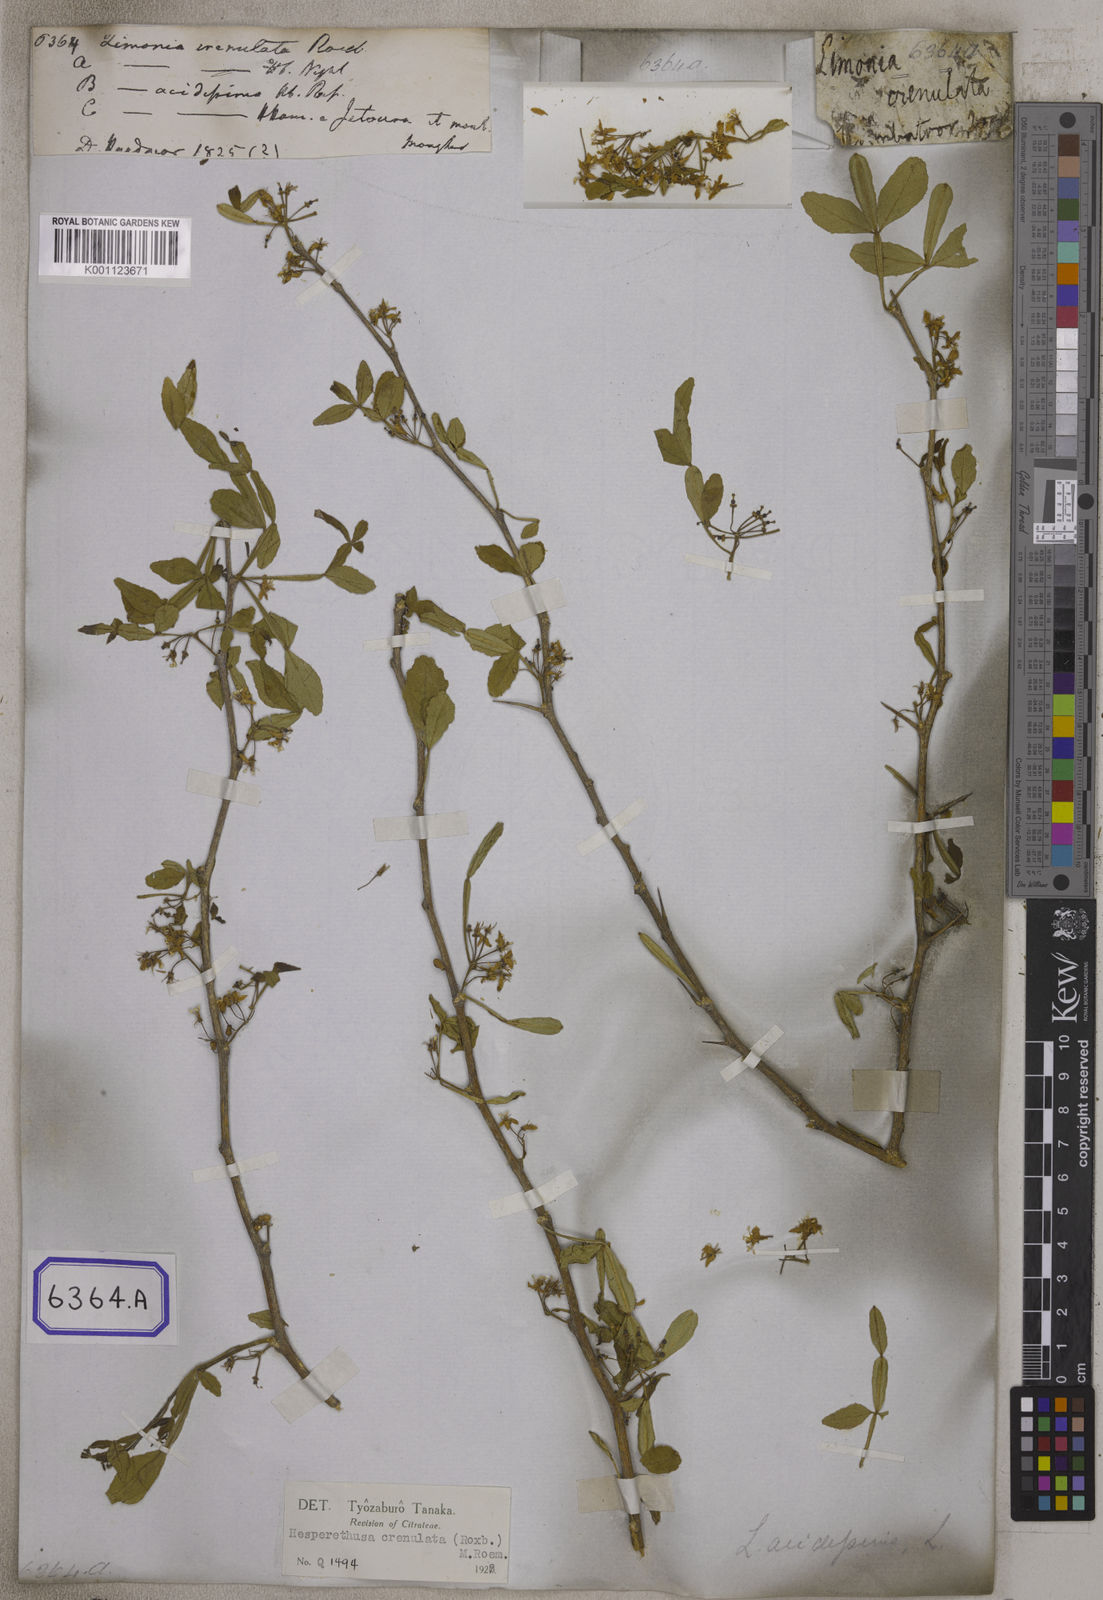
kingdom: Plantae
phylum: Tracheophyta
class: Magnoliopsida
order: Sapindales
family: Rutaceae
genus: Naringi
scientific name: Naringi crenulata
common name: Hesperethusa
